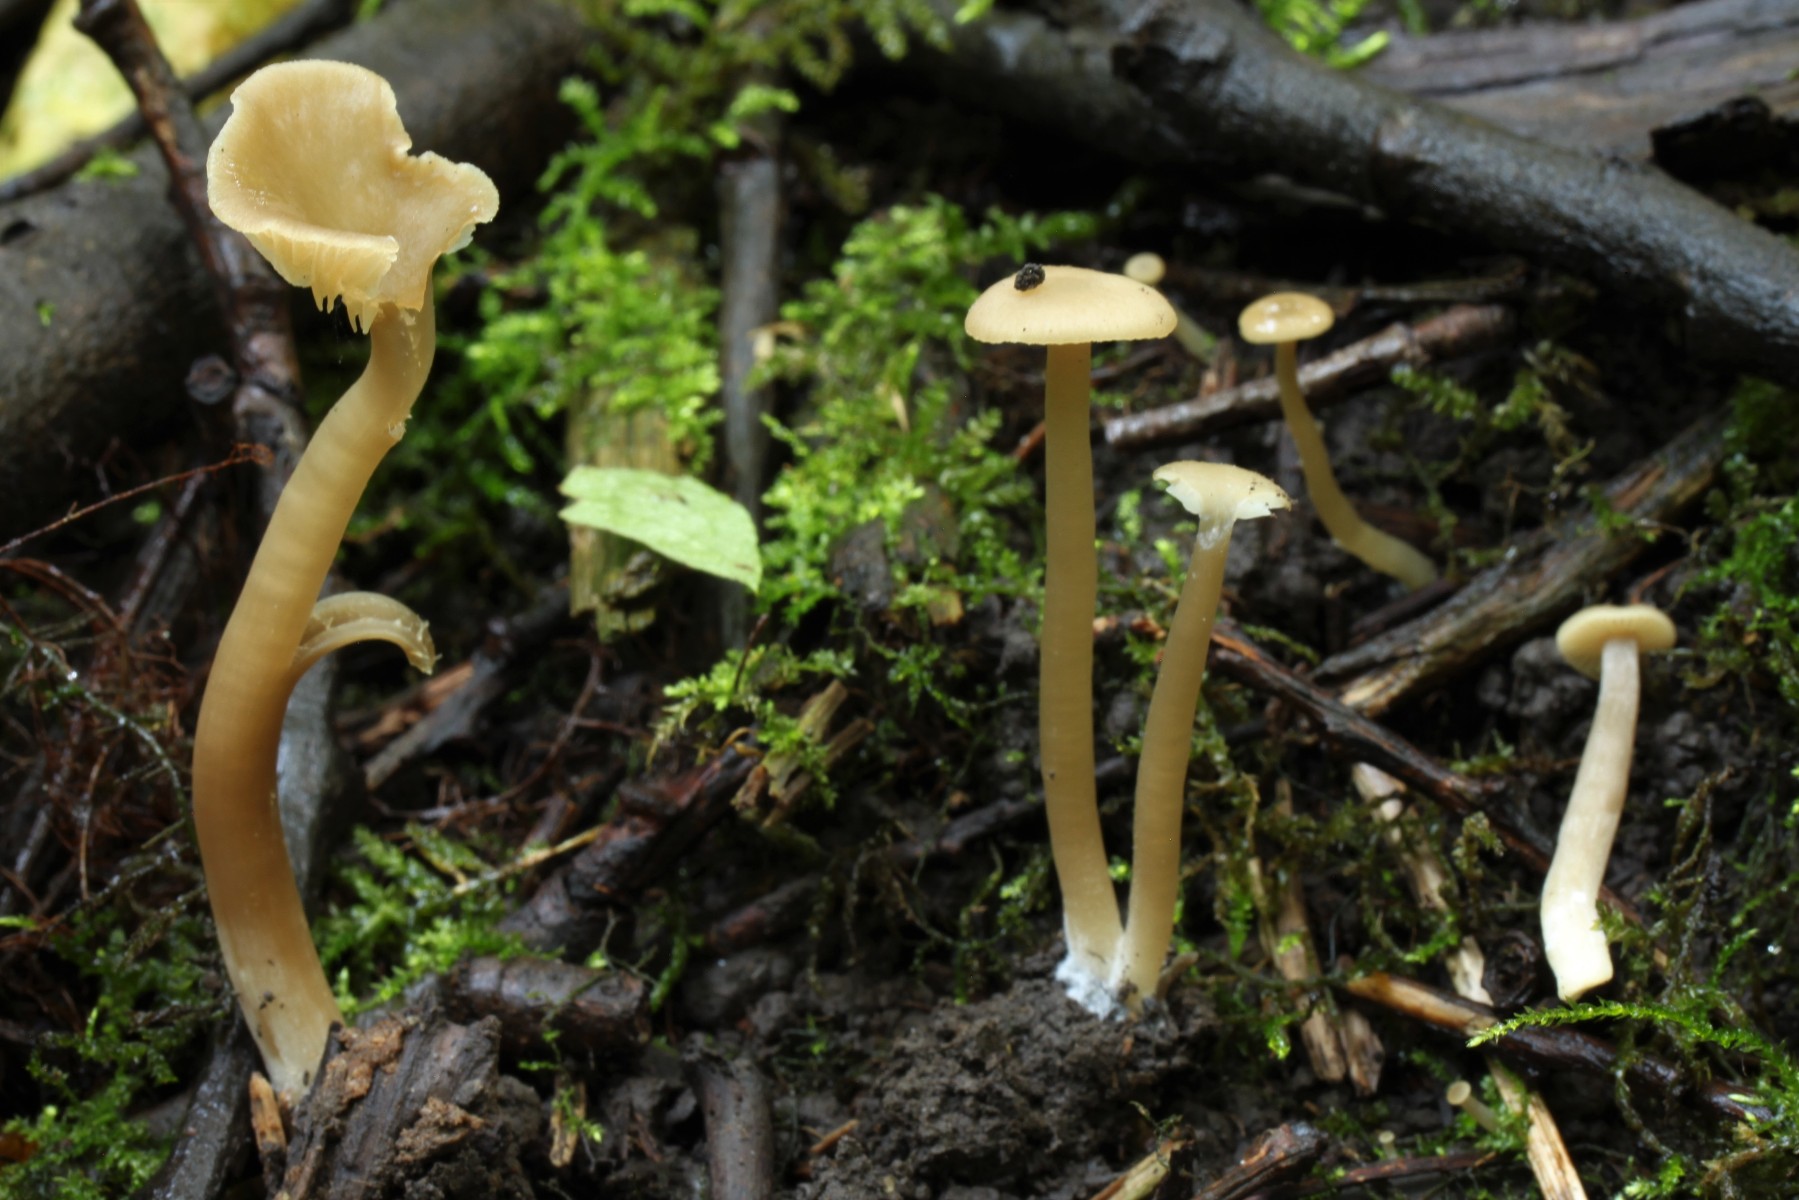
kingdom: Fungi
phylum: Basidiomycota
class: Agaricomycetes
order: Agaricales
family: Entolomataceae
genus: Entoloma
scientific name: Entoloma politum
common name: poleret rødblad
